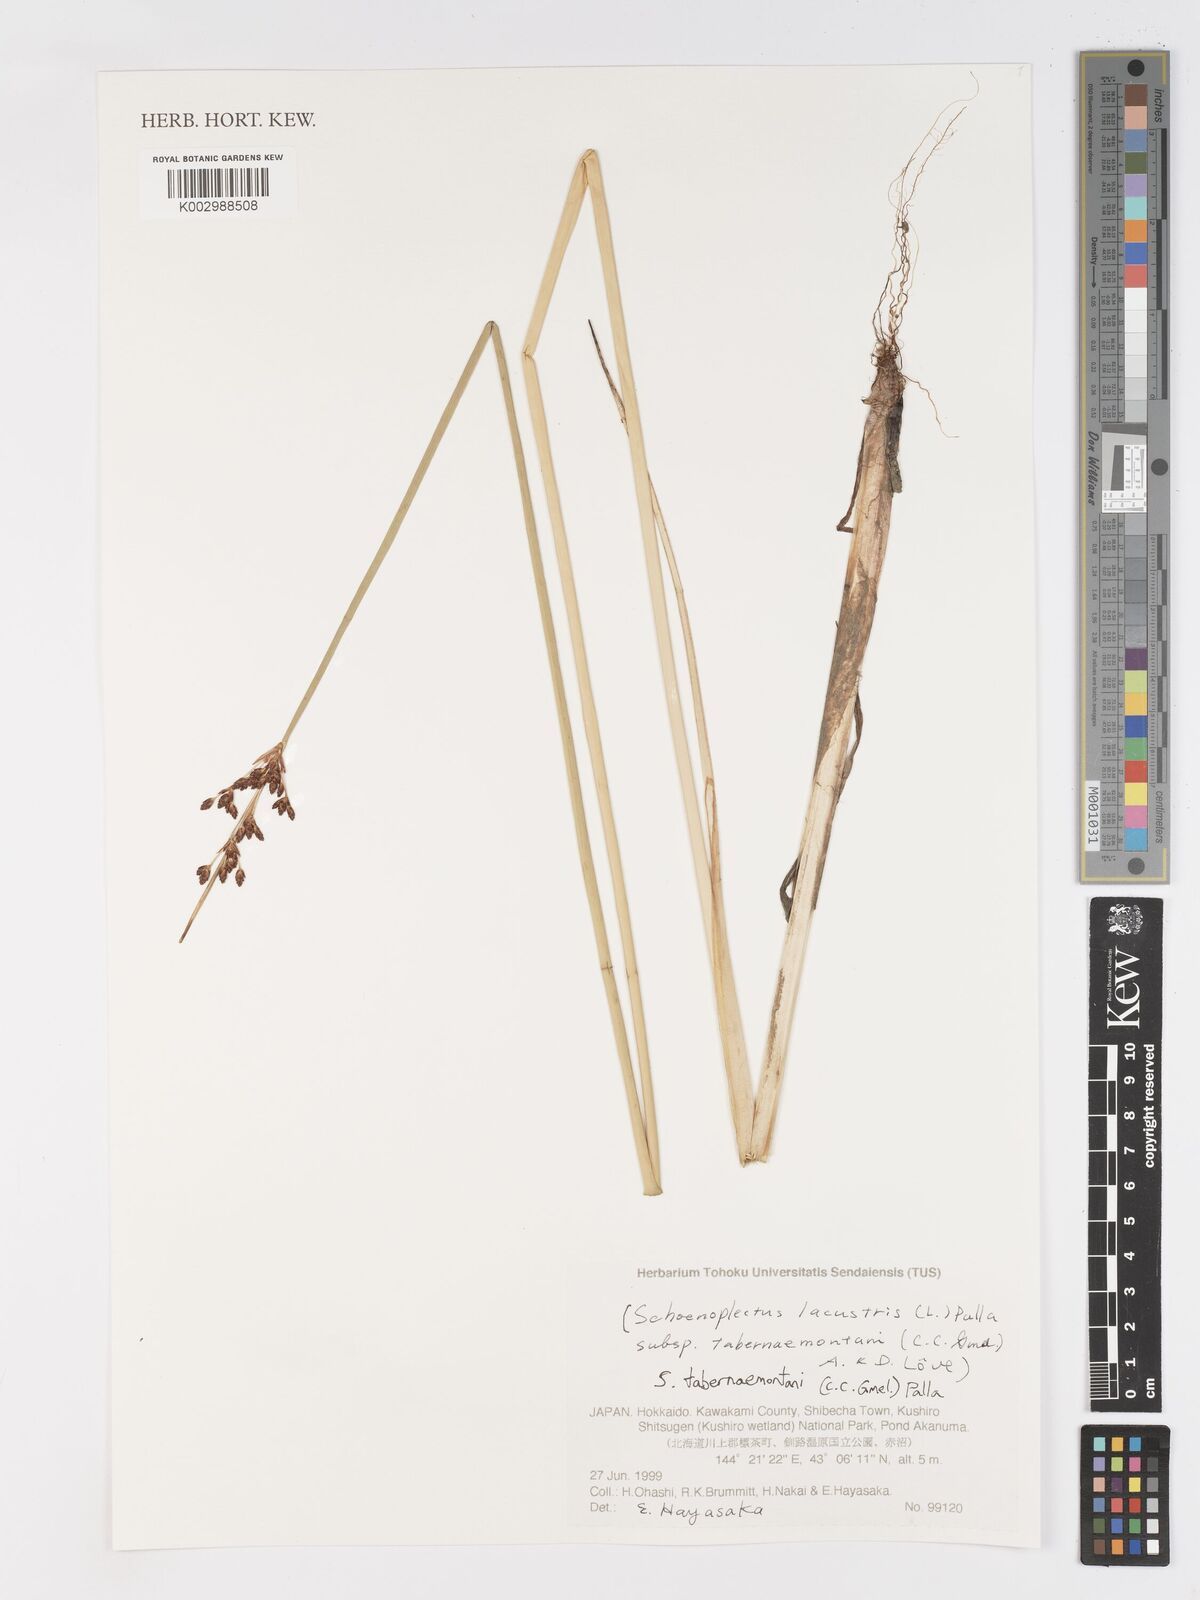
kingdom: Plantae
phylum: Tracheophyta
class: Liliopsida
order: Poales
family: Cyperaceae
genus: Schoenoplectus
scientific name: Schoenoplectus tabernaemontani
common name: Grey club-rush
